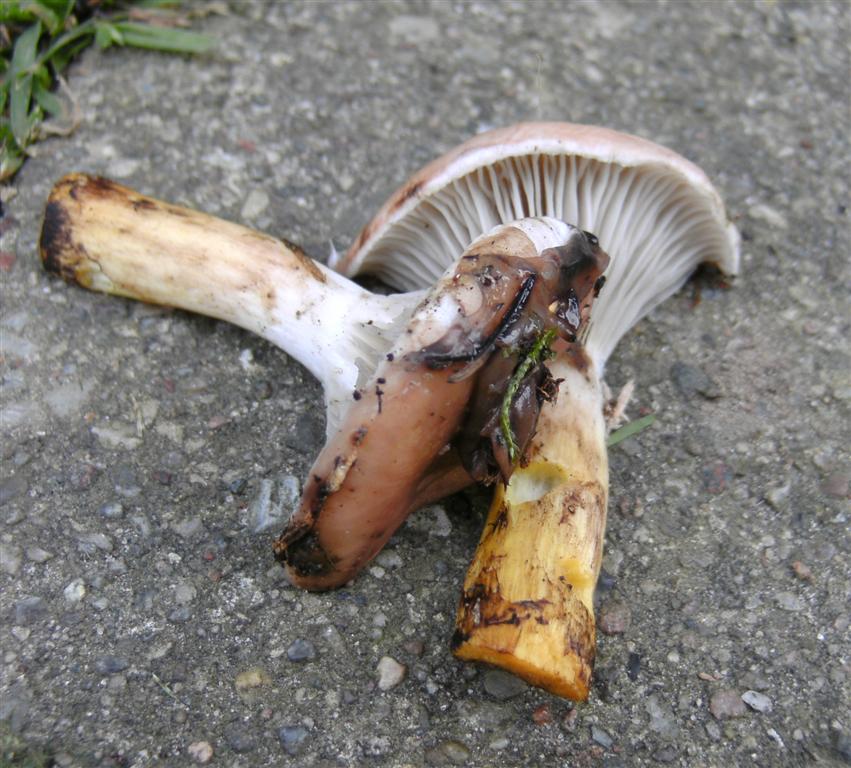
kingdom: Fungi
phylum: Basidiomycota
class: Agaricomycetes
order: Boletales
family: Gomphidiaceae
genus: Gomphidius
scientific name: Gomphidius glutinosus
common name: grå slimslør
